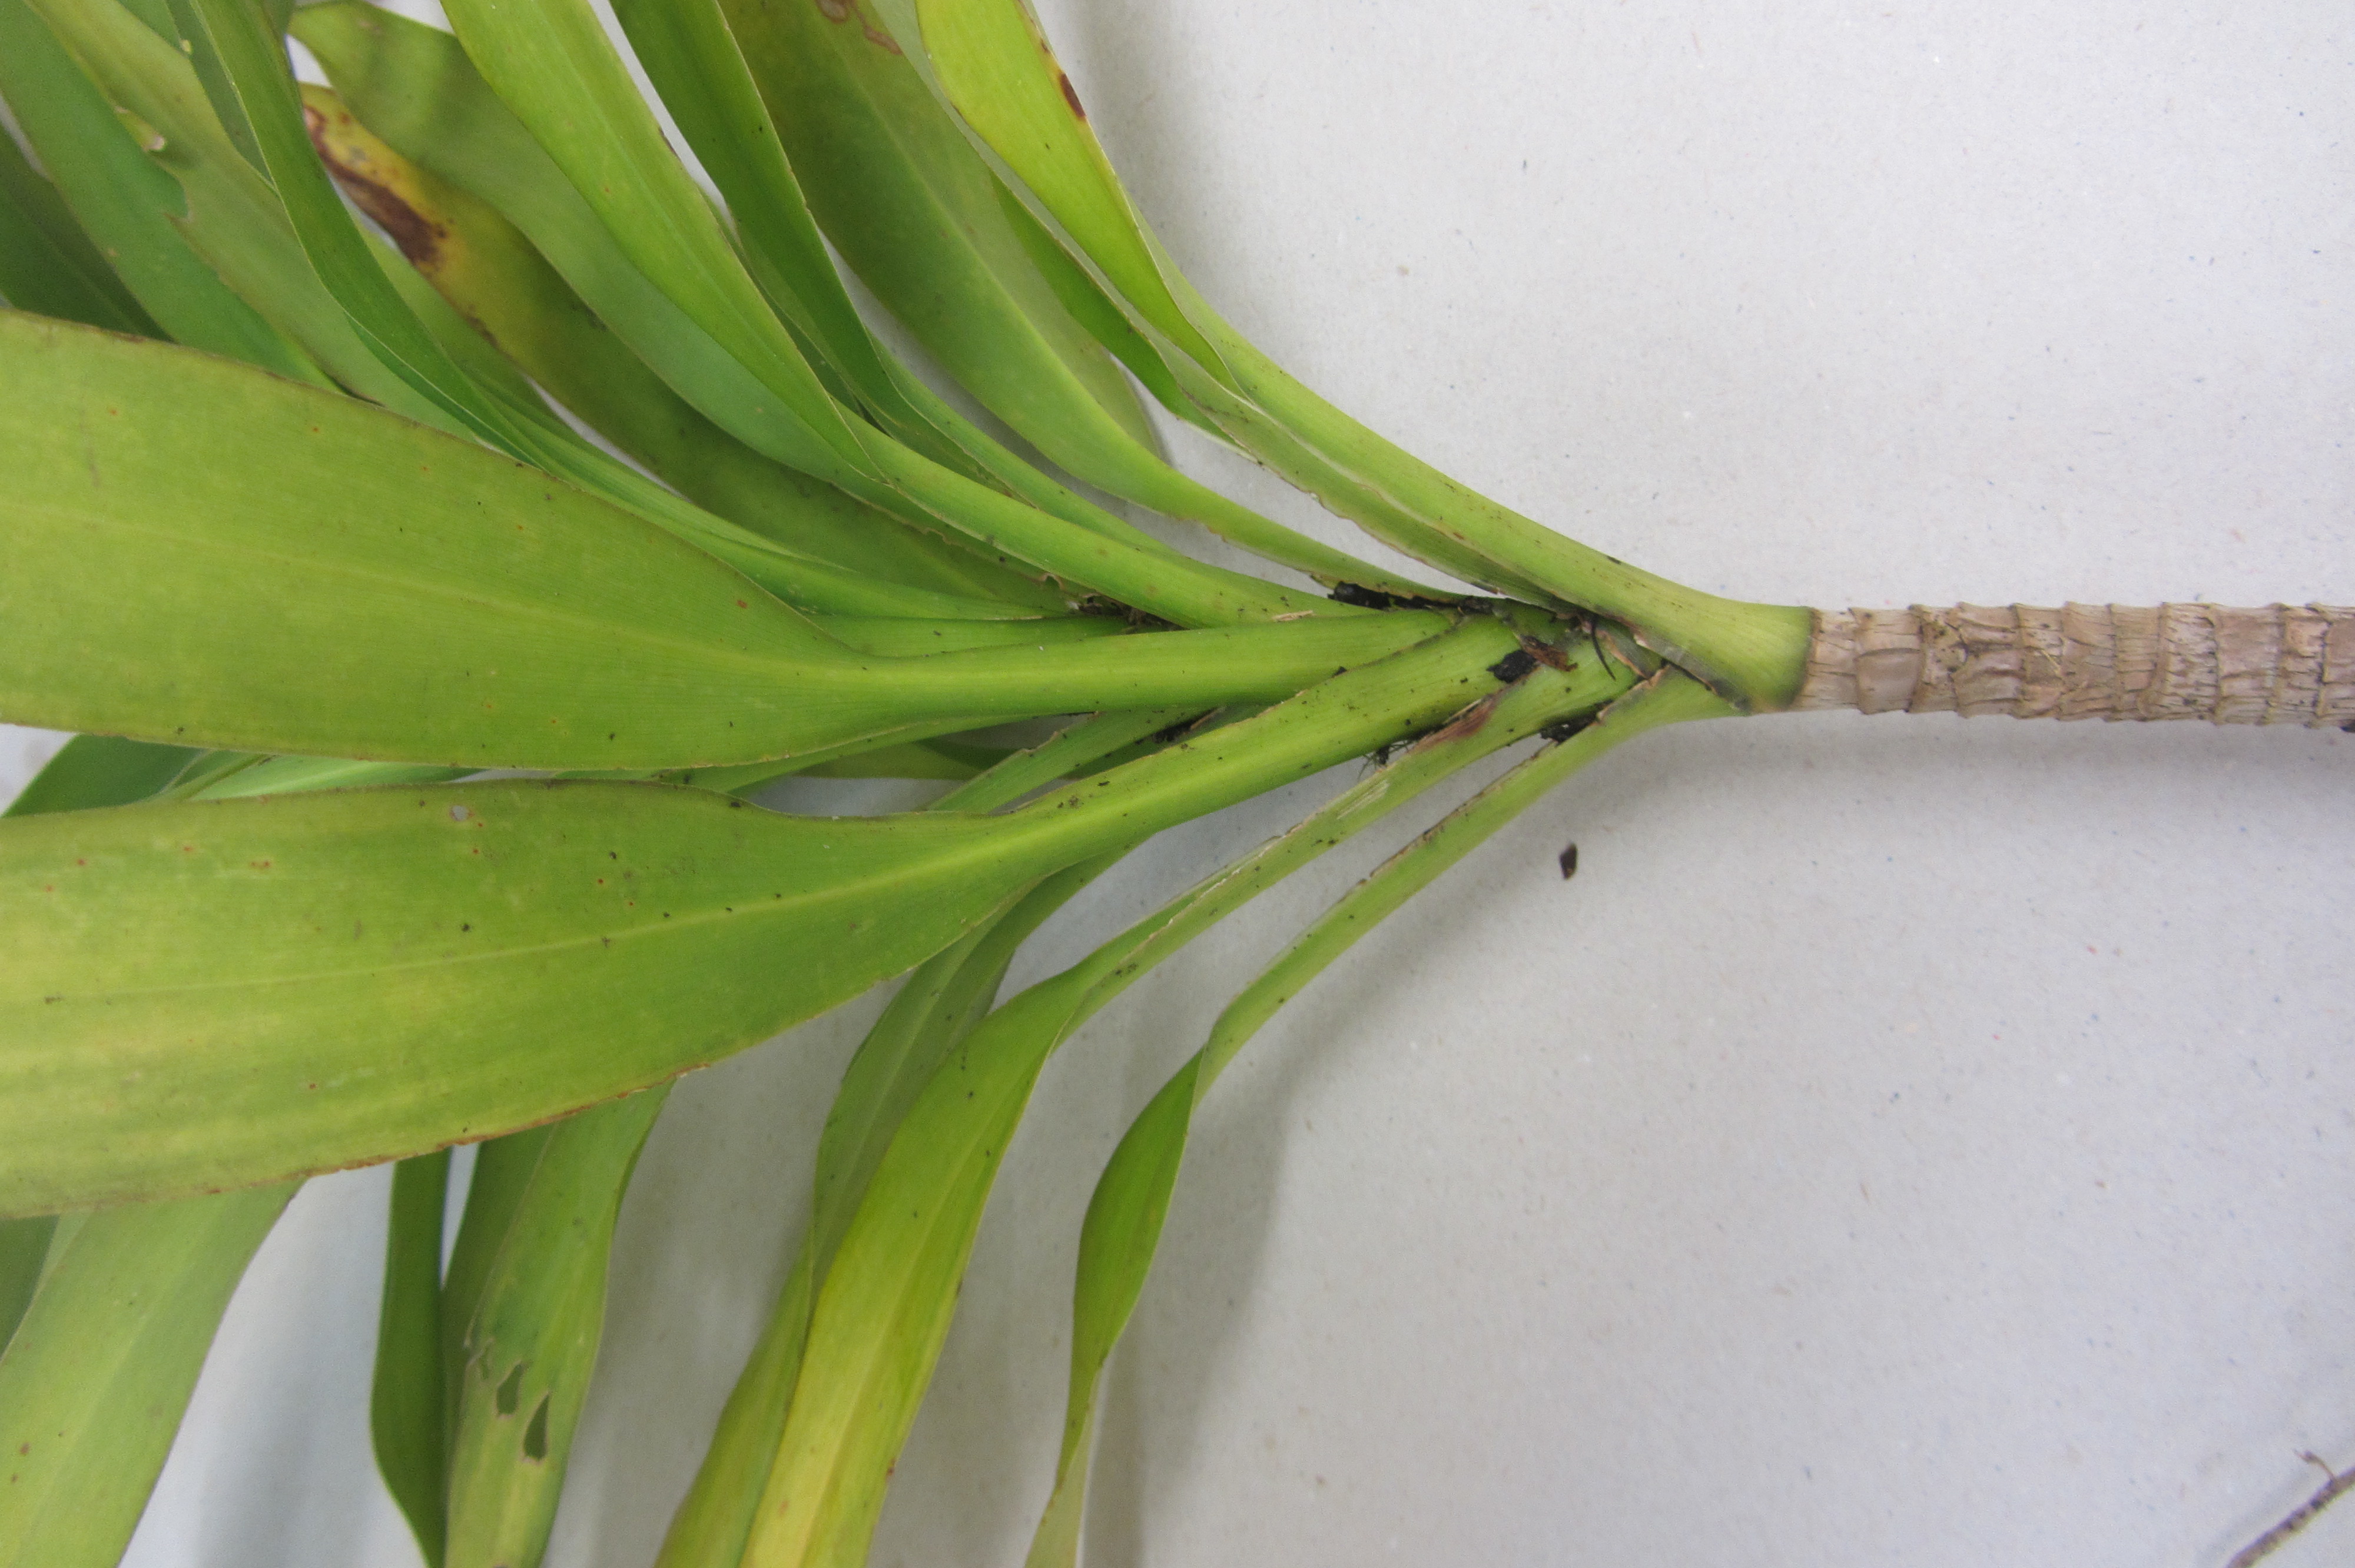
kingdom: Plantae
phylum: Tracheophyta
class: Liliopsida
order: Asparagales
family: Asparagaceae
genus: Cordyline
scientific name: Cordyline rubra
